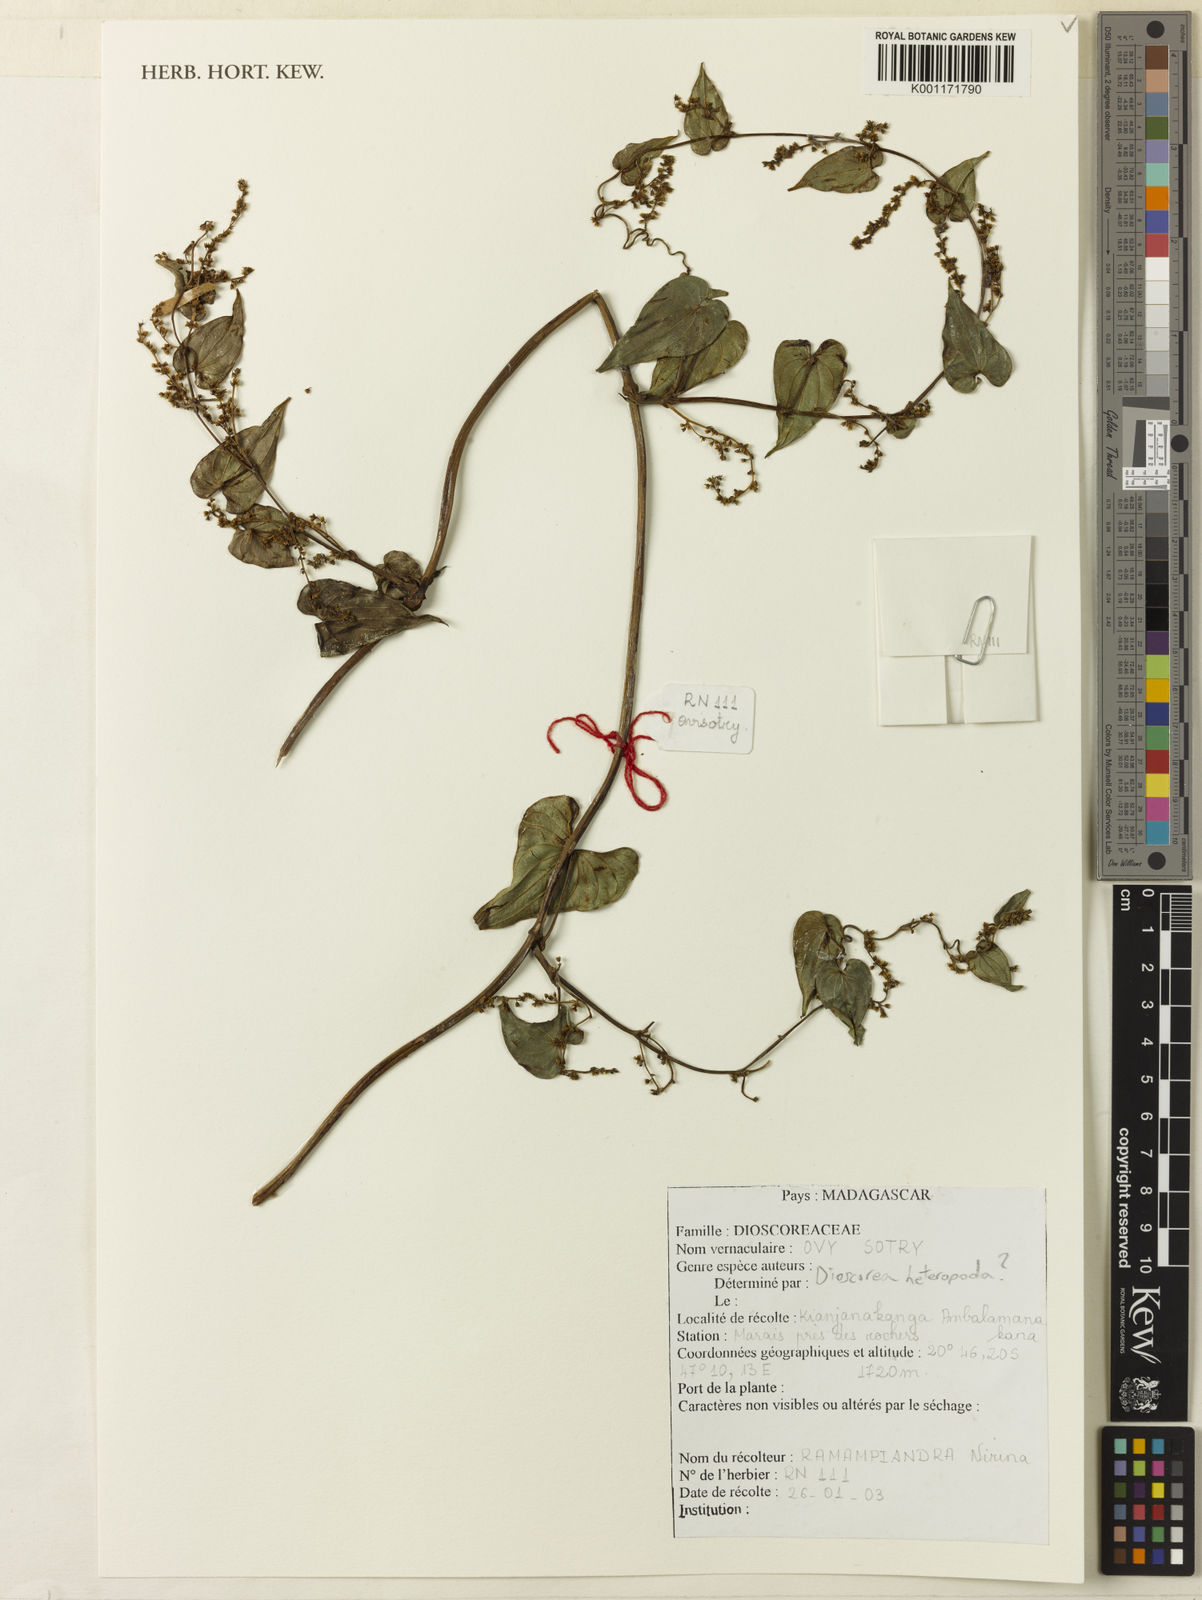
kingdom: Plantae
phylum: Tracheophyta
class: Liliopsida
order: Dioscoreales
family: Dioscoreaceae
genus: Dioscorea
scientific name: Dioscorea heteropoda
